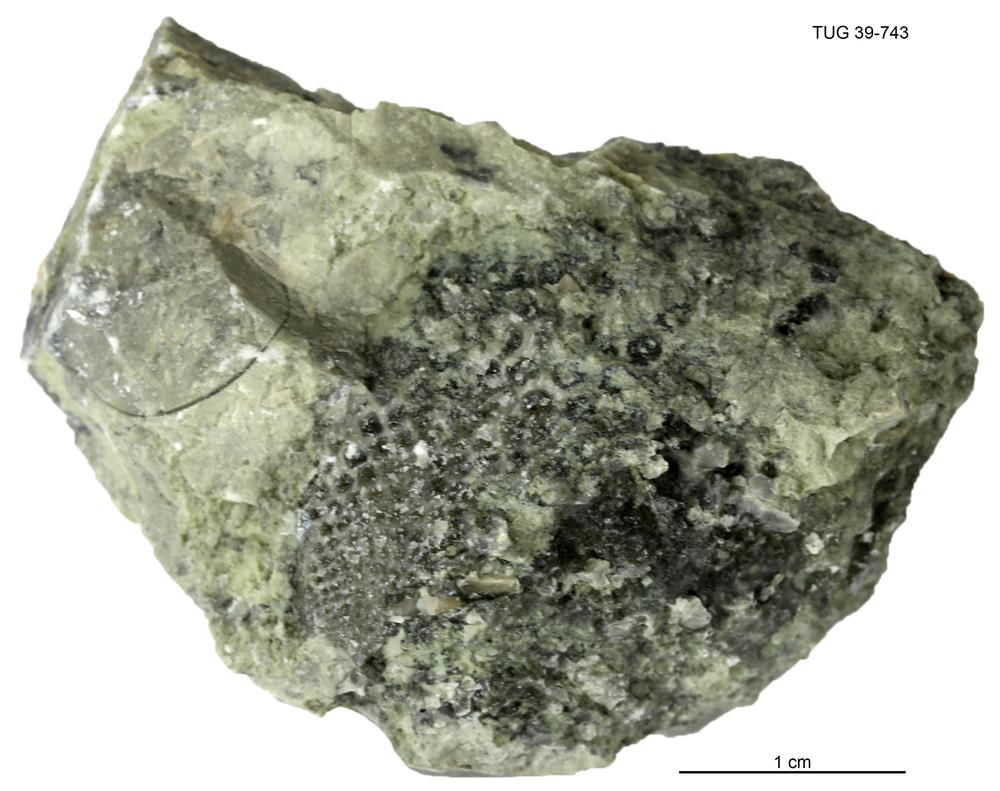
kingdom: Plantae
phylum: Chlorophyta
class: Chlorophyceae
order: Receptaculitales
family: Receptaculitaceae
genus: Receptaculites
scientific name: Receptaculites
